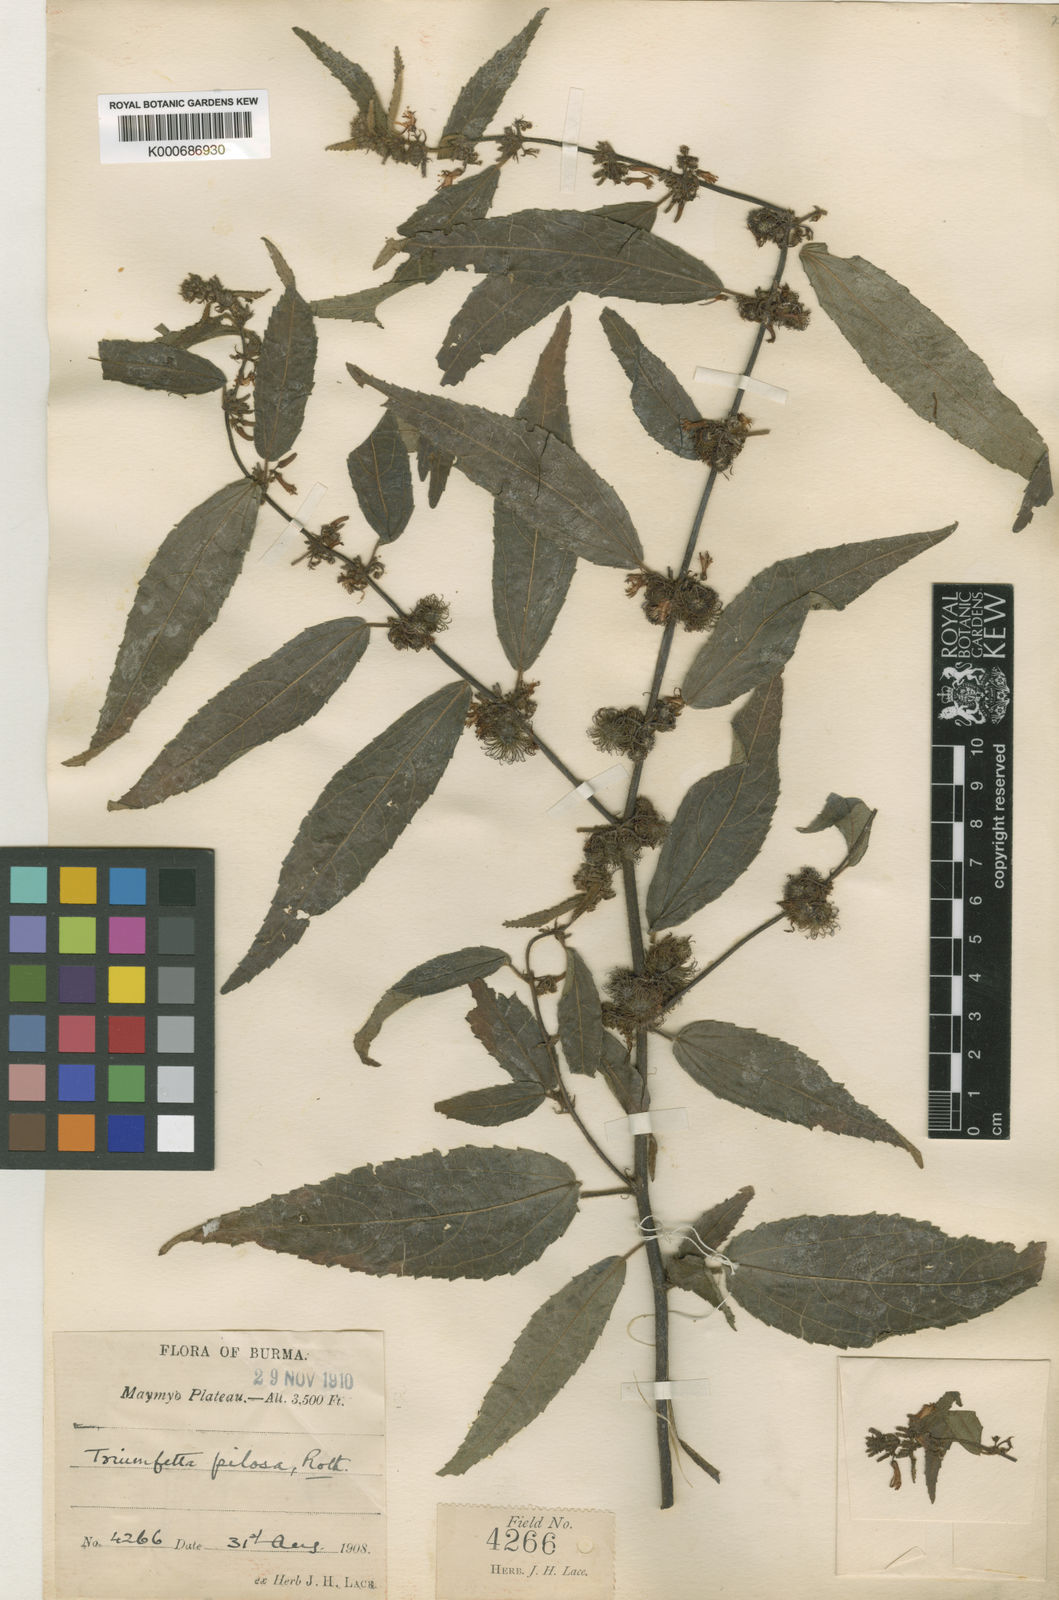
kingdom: Plantae
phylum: Tracheophyta
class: Magnoliopsida
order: Malvales
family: Malvaceae
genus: Triumfetta
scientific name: Triumfetta pilosa
